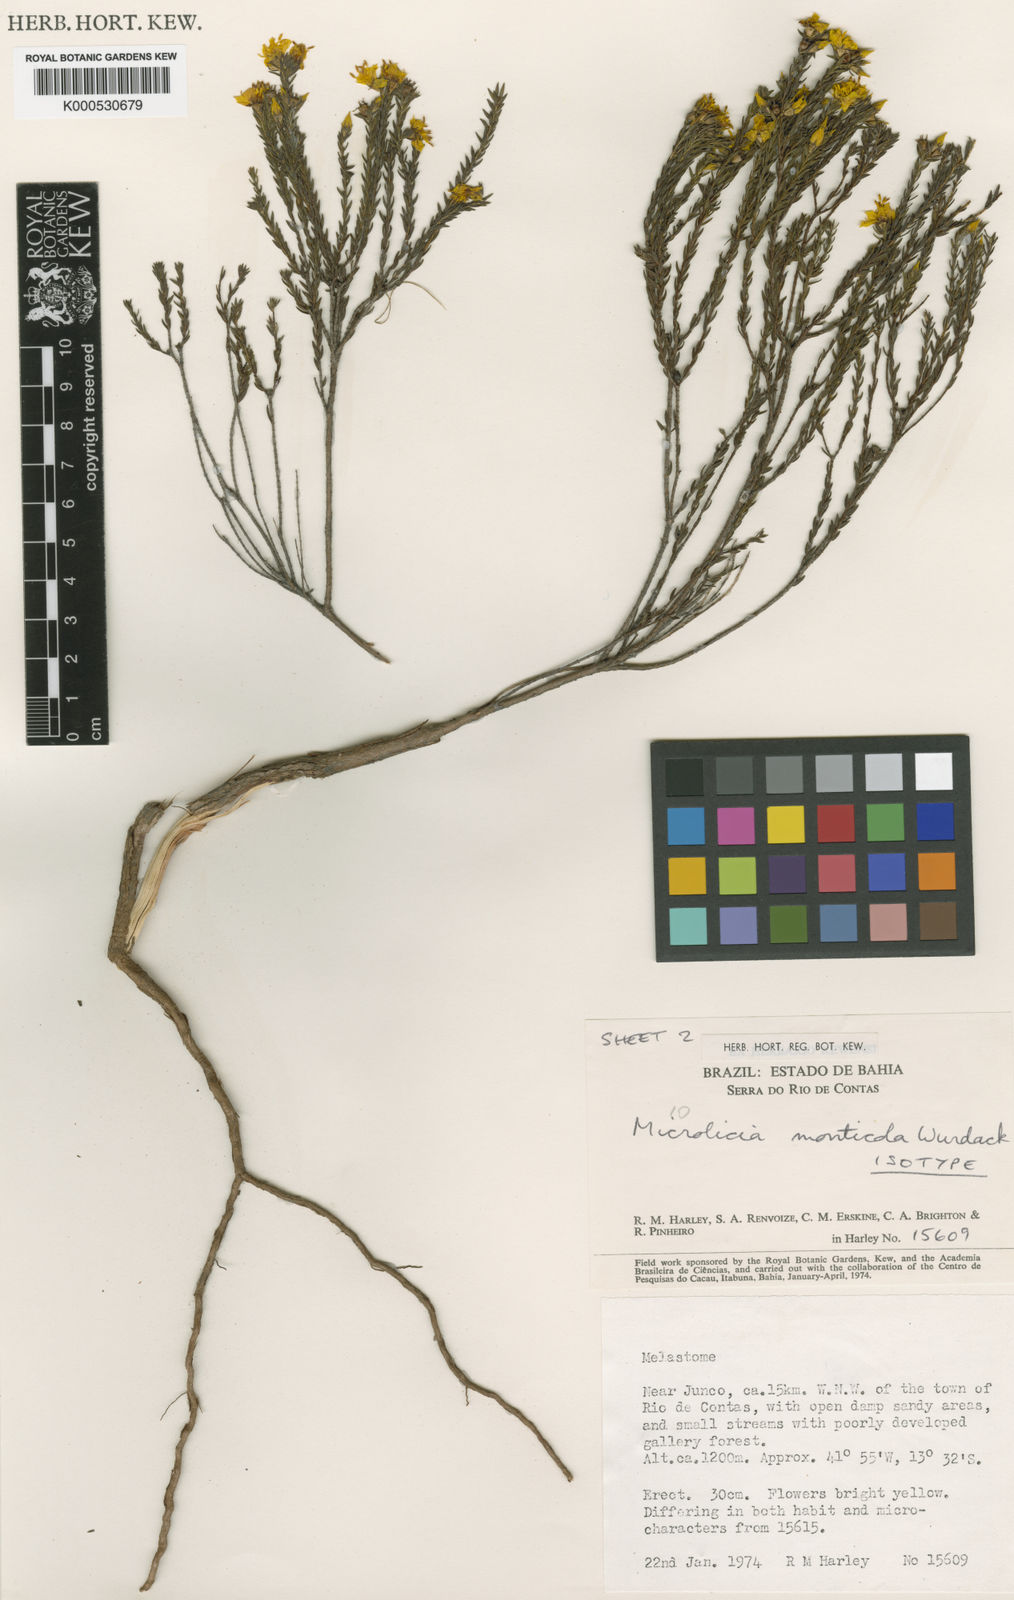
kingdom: Plantae
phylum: Tracheophyta
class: Magnoliopsida
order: Myrtales
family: Melastomataceae
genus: Microlicia
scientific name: Microlicia monticola
